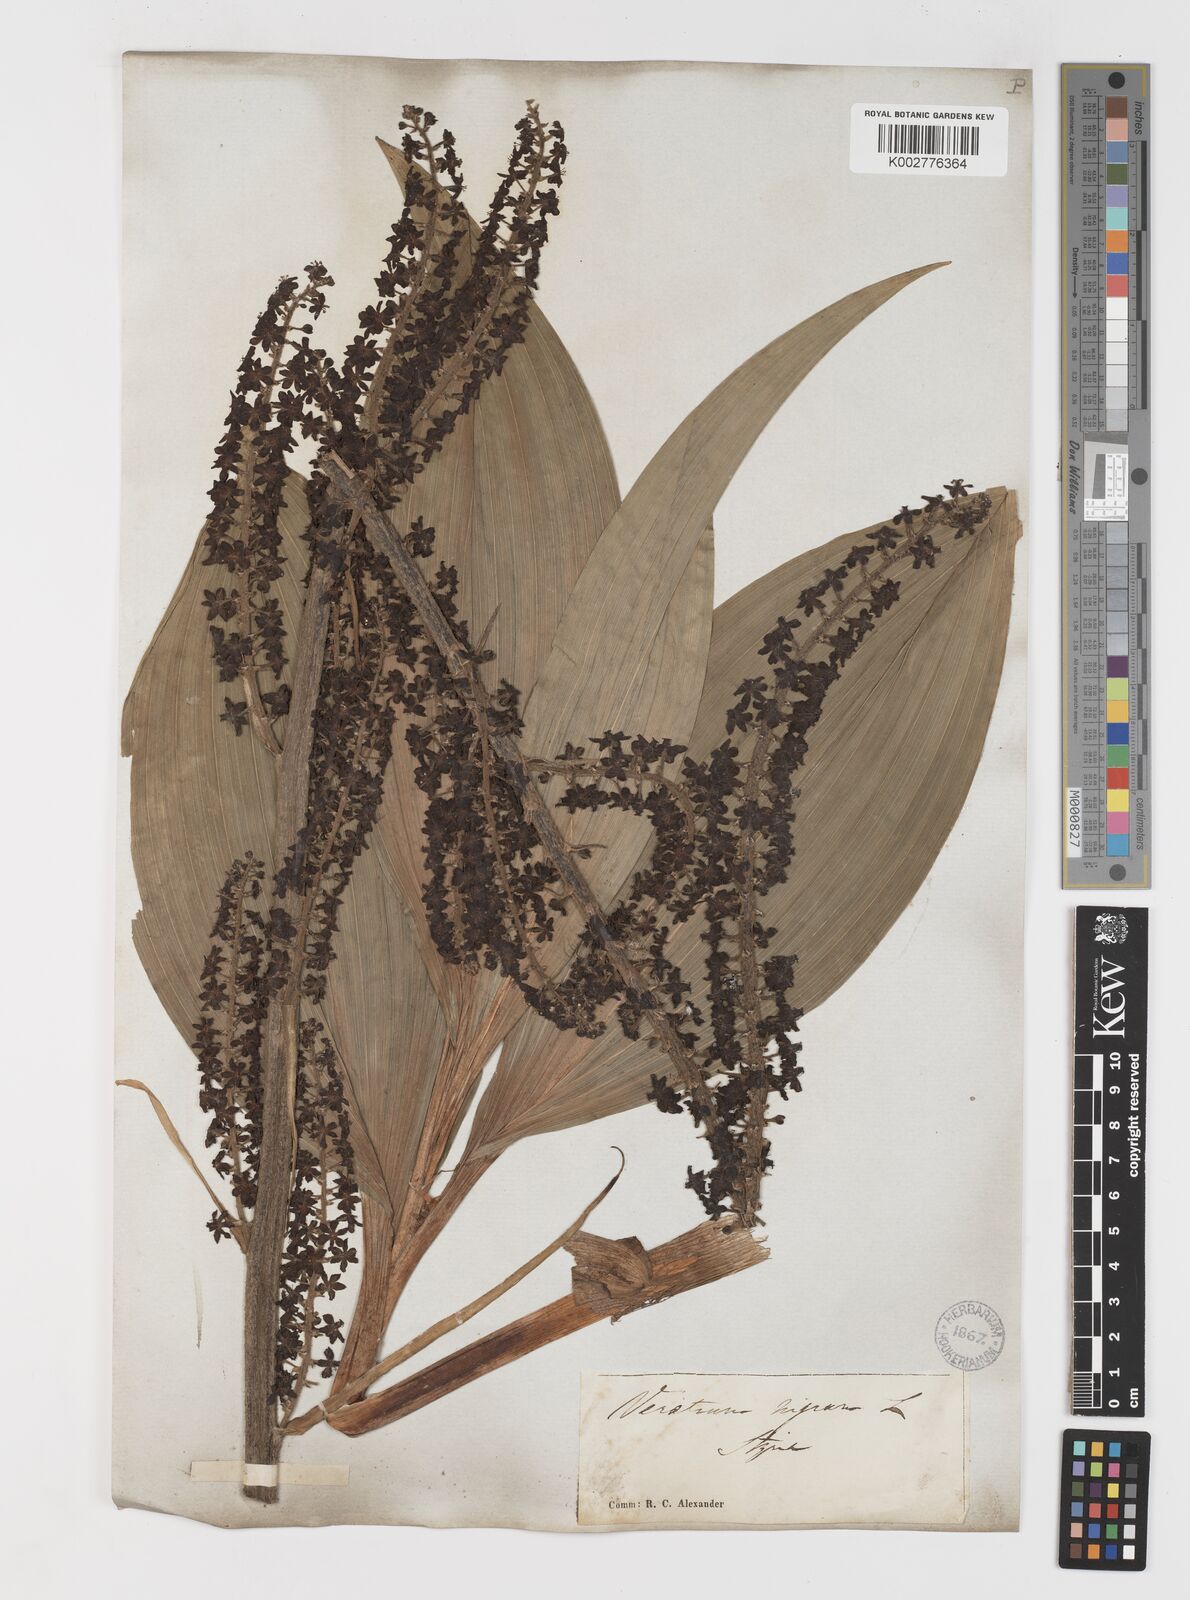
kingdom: Plantae
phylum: Tracheophyta
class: Liliopsida
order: Liliales
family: Melanthiaceae
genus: Veratrum
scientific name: Veratrum nigrum
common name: Black veratrum
